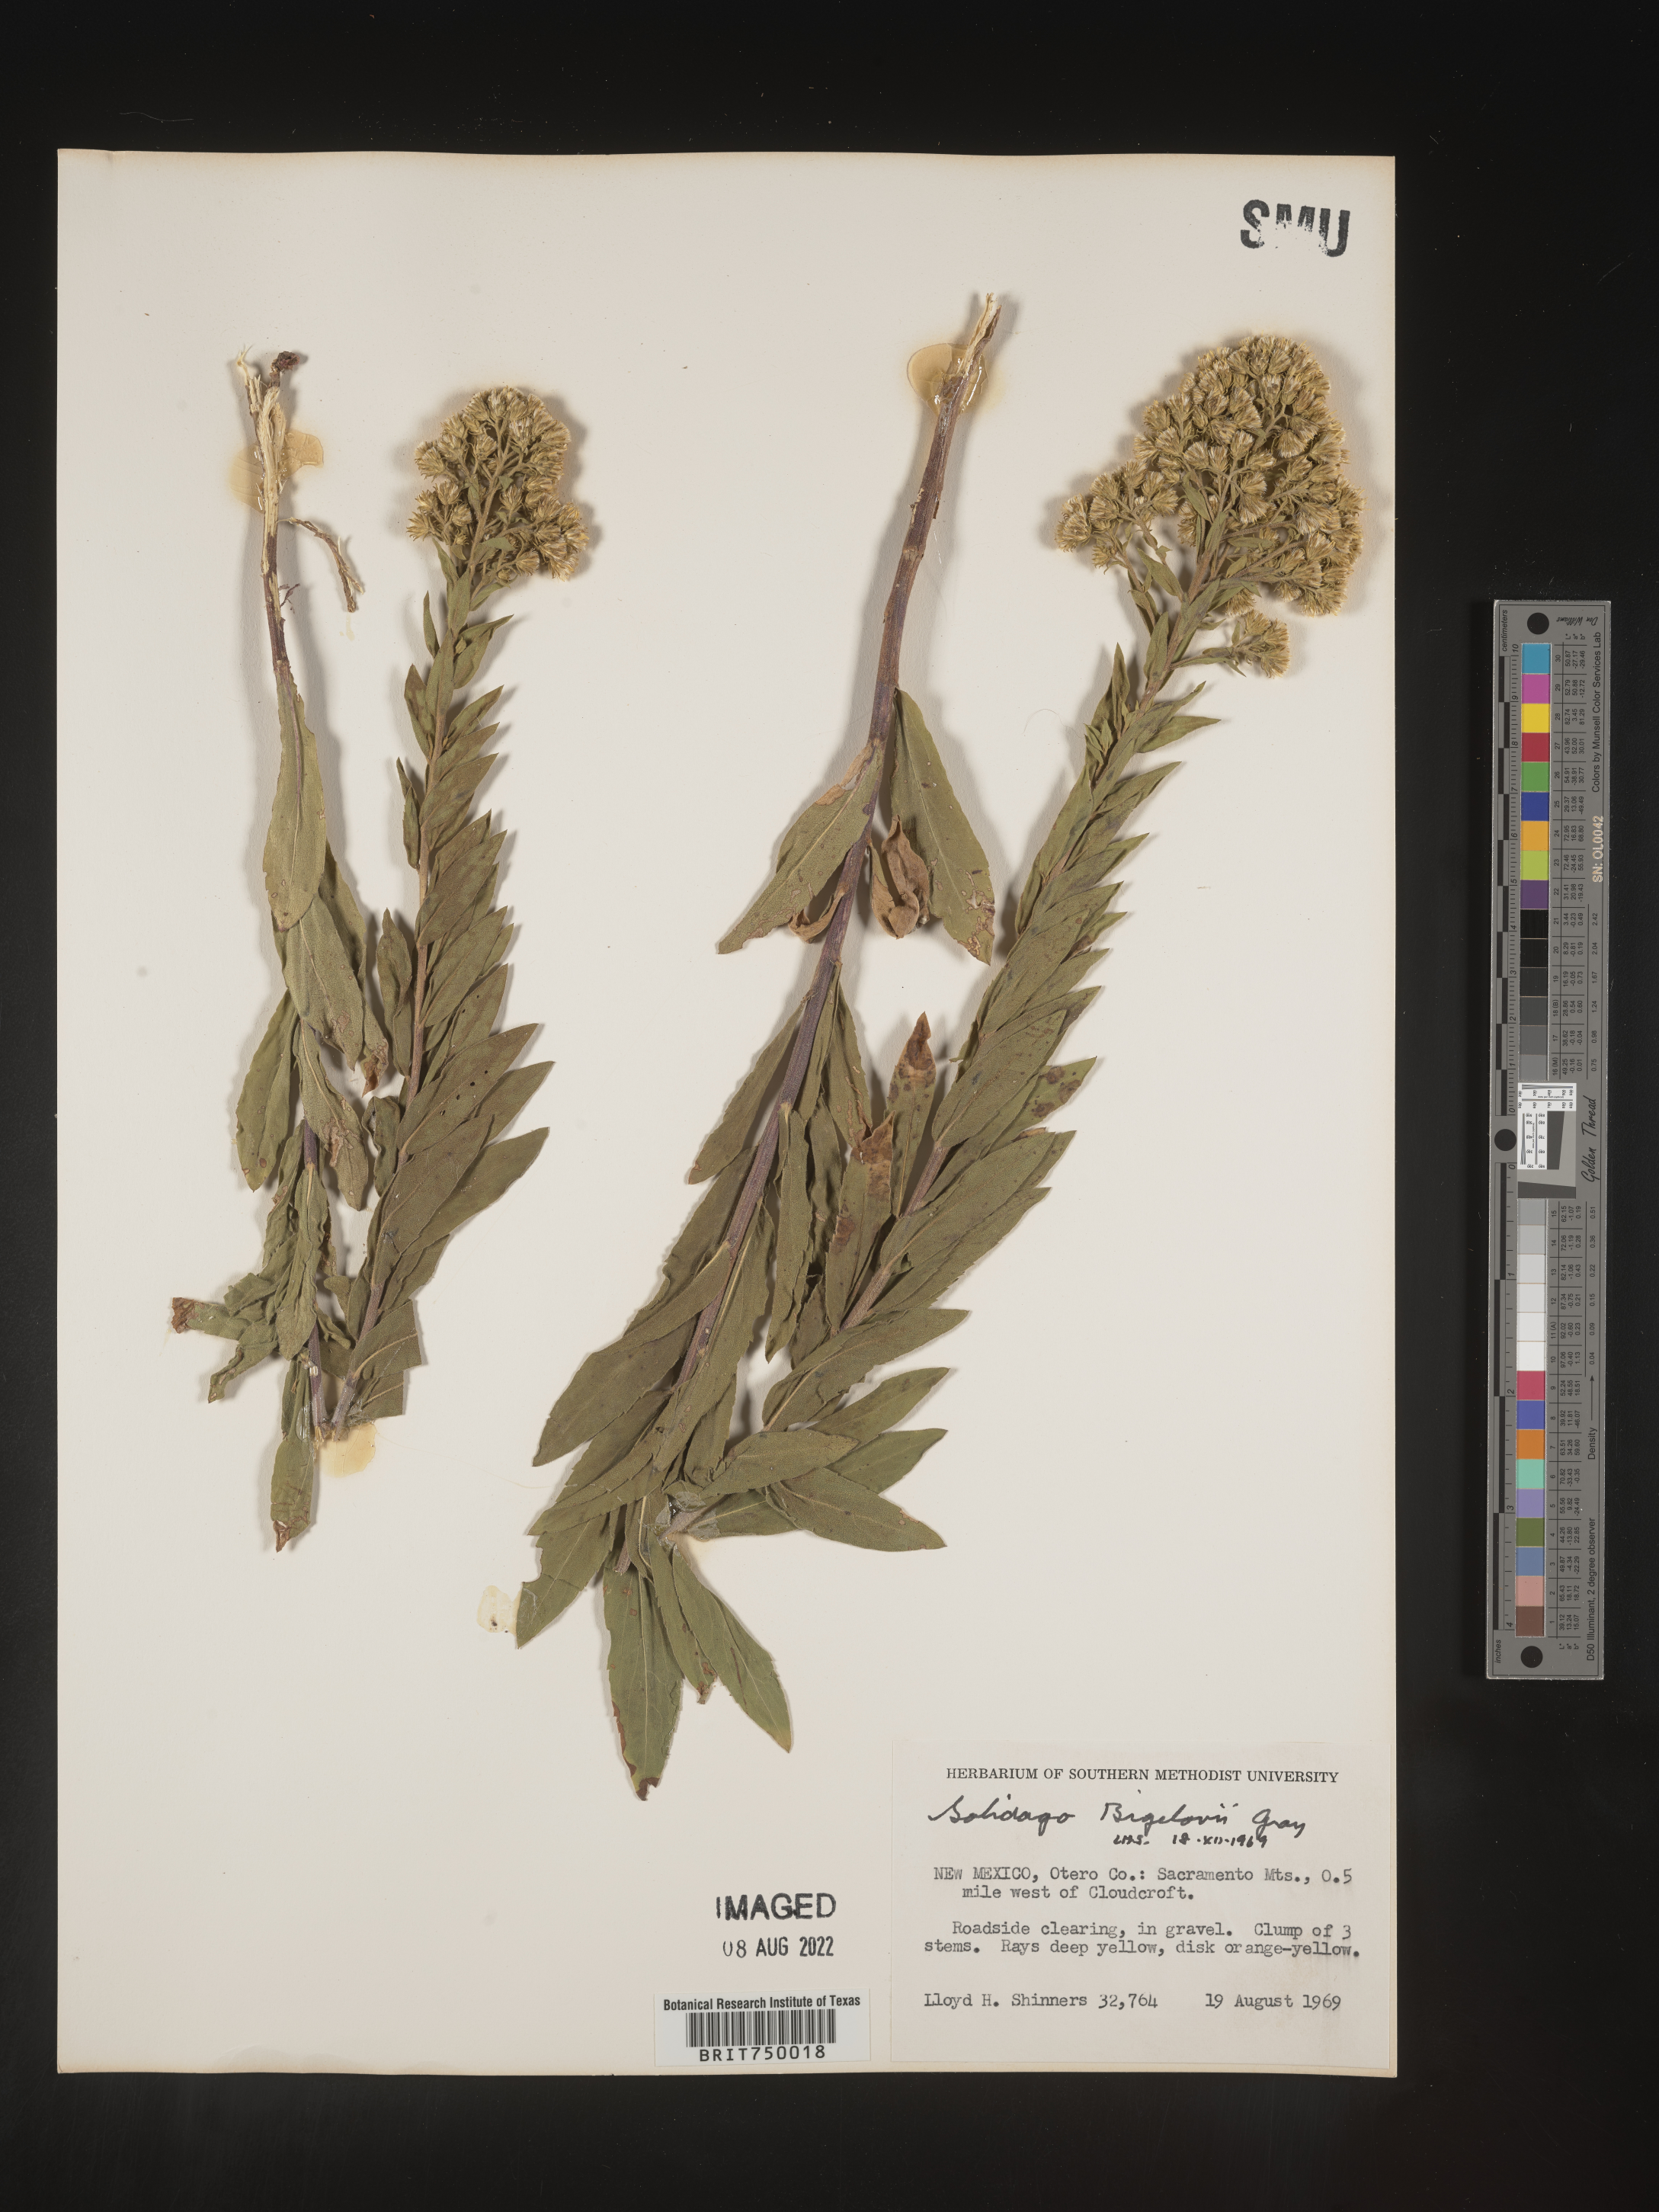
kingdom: Plantae
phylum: Tracheophyta
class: Magnoliopsida
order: Asterales
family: Asteraceae
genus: Solidago
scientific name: Solidago wrightii
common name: Wright's goldenrod
